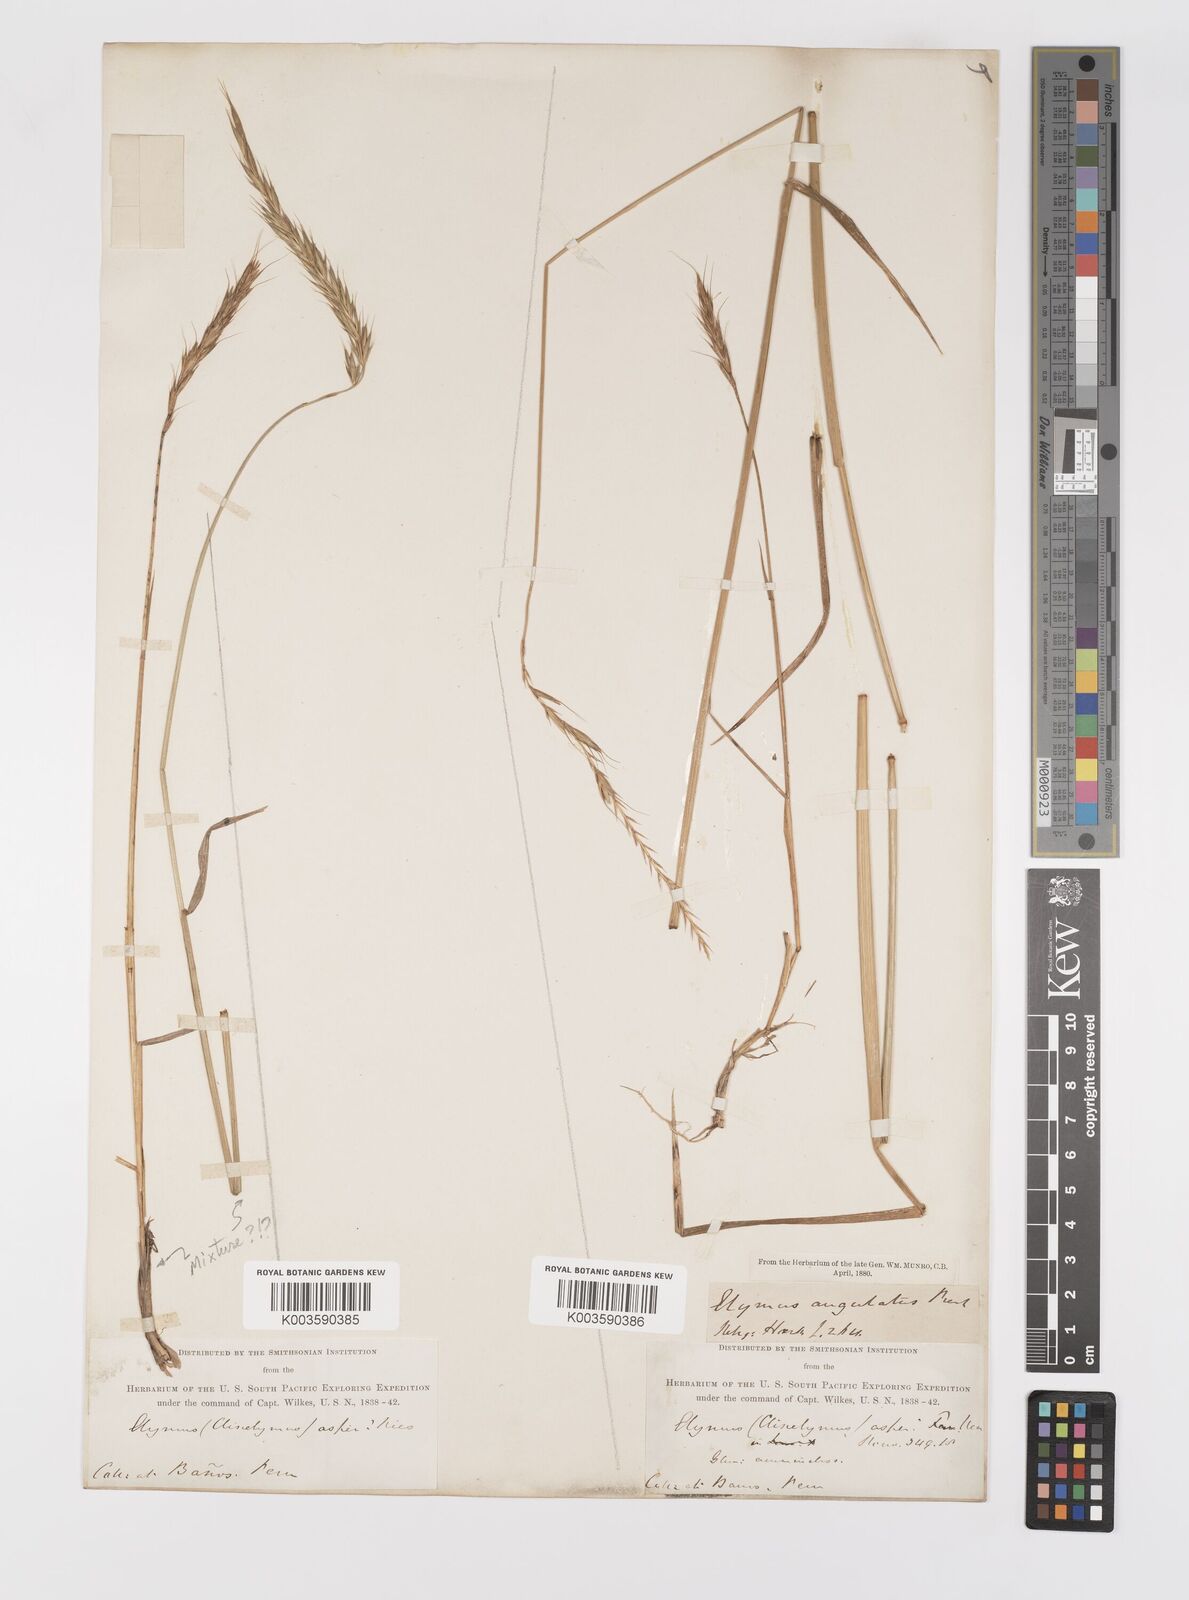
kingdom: Plantae
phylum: Tracheophyta
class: Liliopsida
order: Poales
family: Poaceae
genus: Elymus
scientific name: Elymus angulatus
